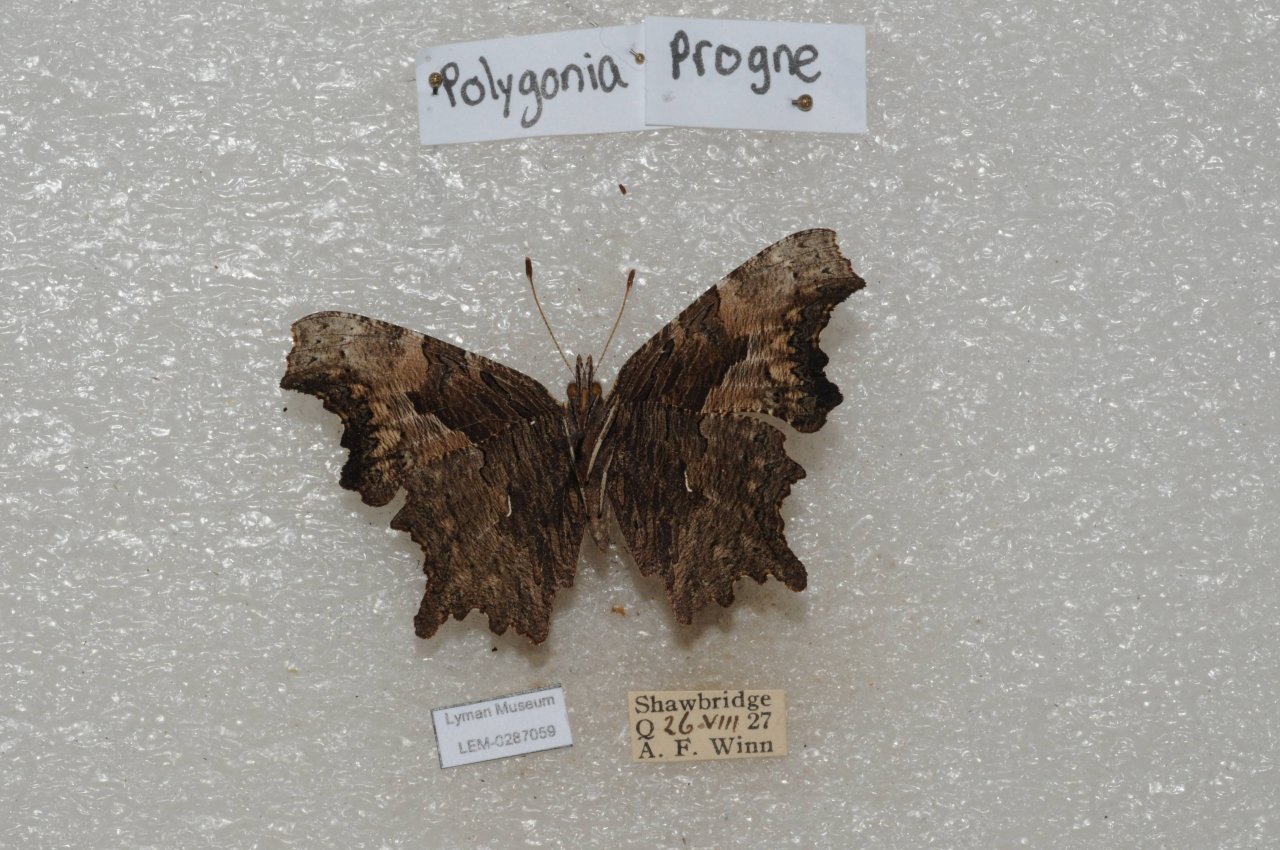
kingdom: Animalia
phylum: Arthropoda
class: Insecta
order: Lepidoptera
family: Nymphalidae
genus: Polygonia
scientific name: Polygonia progne
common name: Gray Comma
